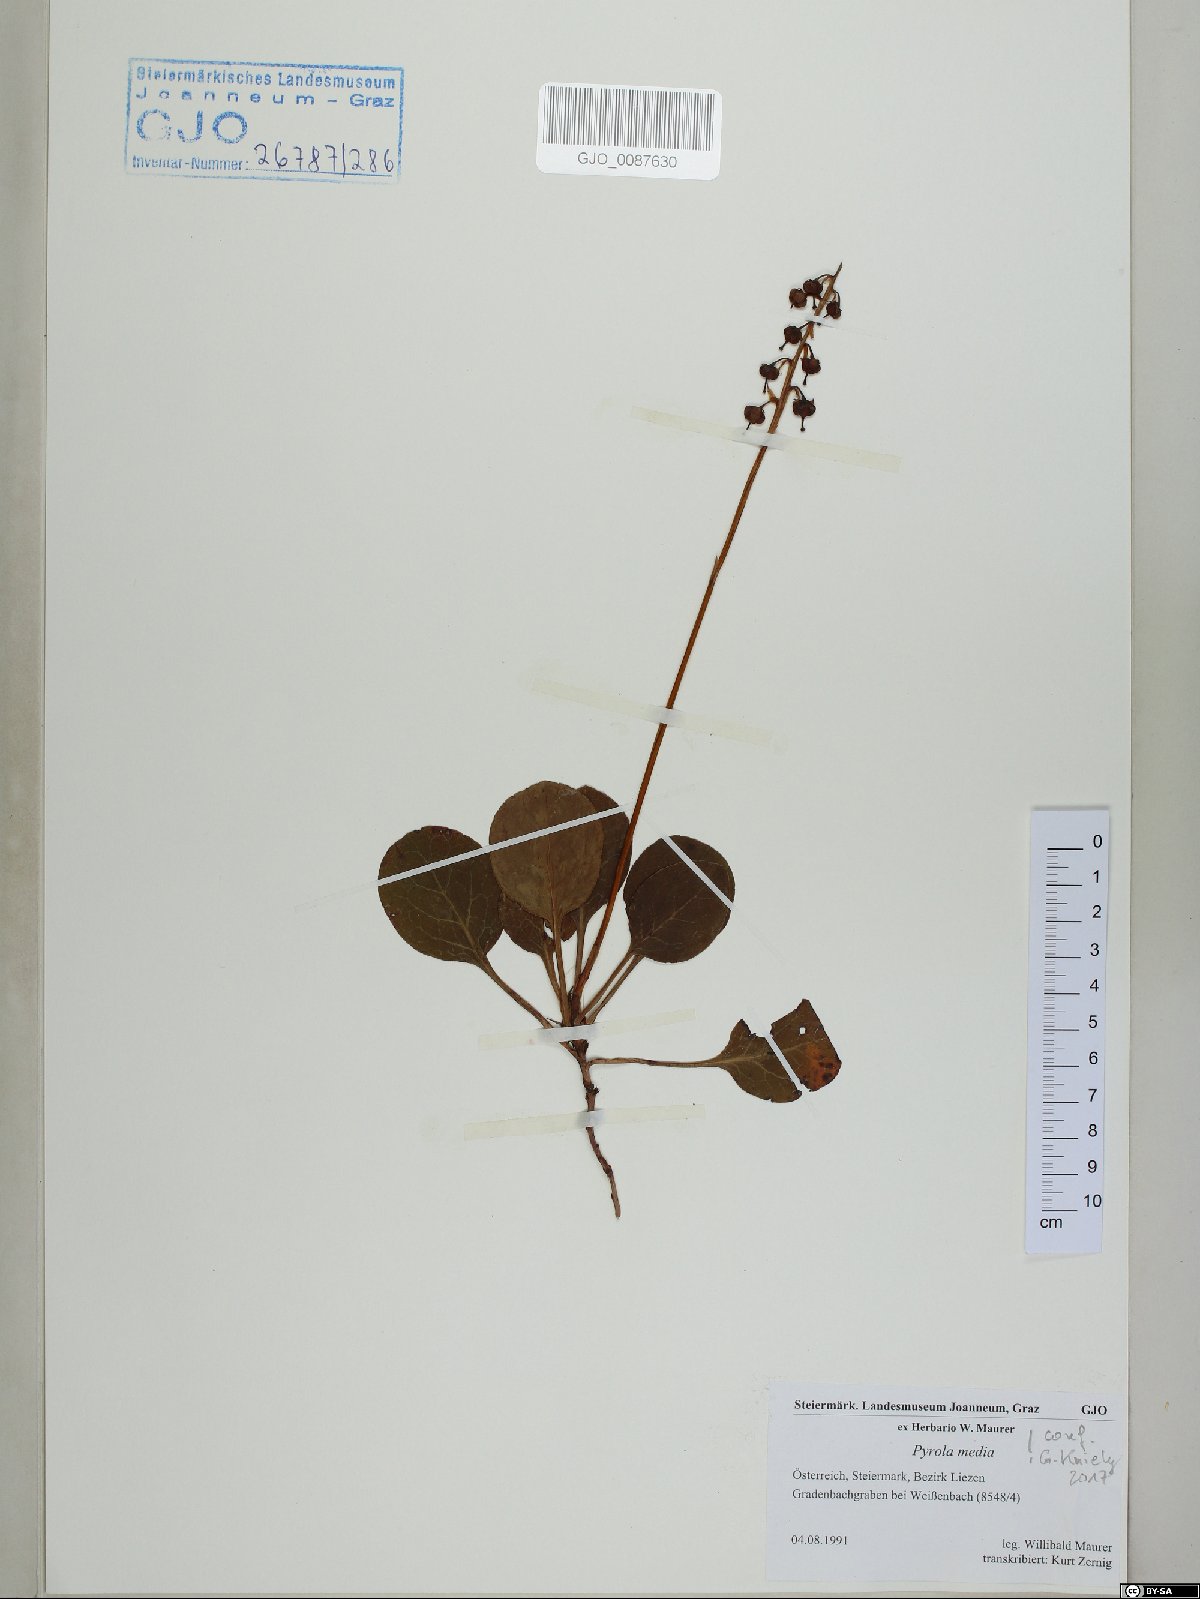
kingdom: Plantae
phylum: Tracheophyta
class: Magnoliopsida
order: Ericales
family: Ericaceae
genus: Pyrola
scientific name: Pyrola media
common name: Intermediate wintergreen
